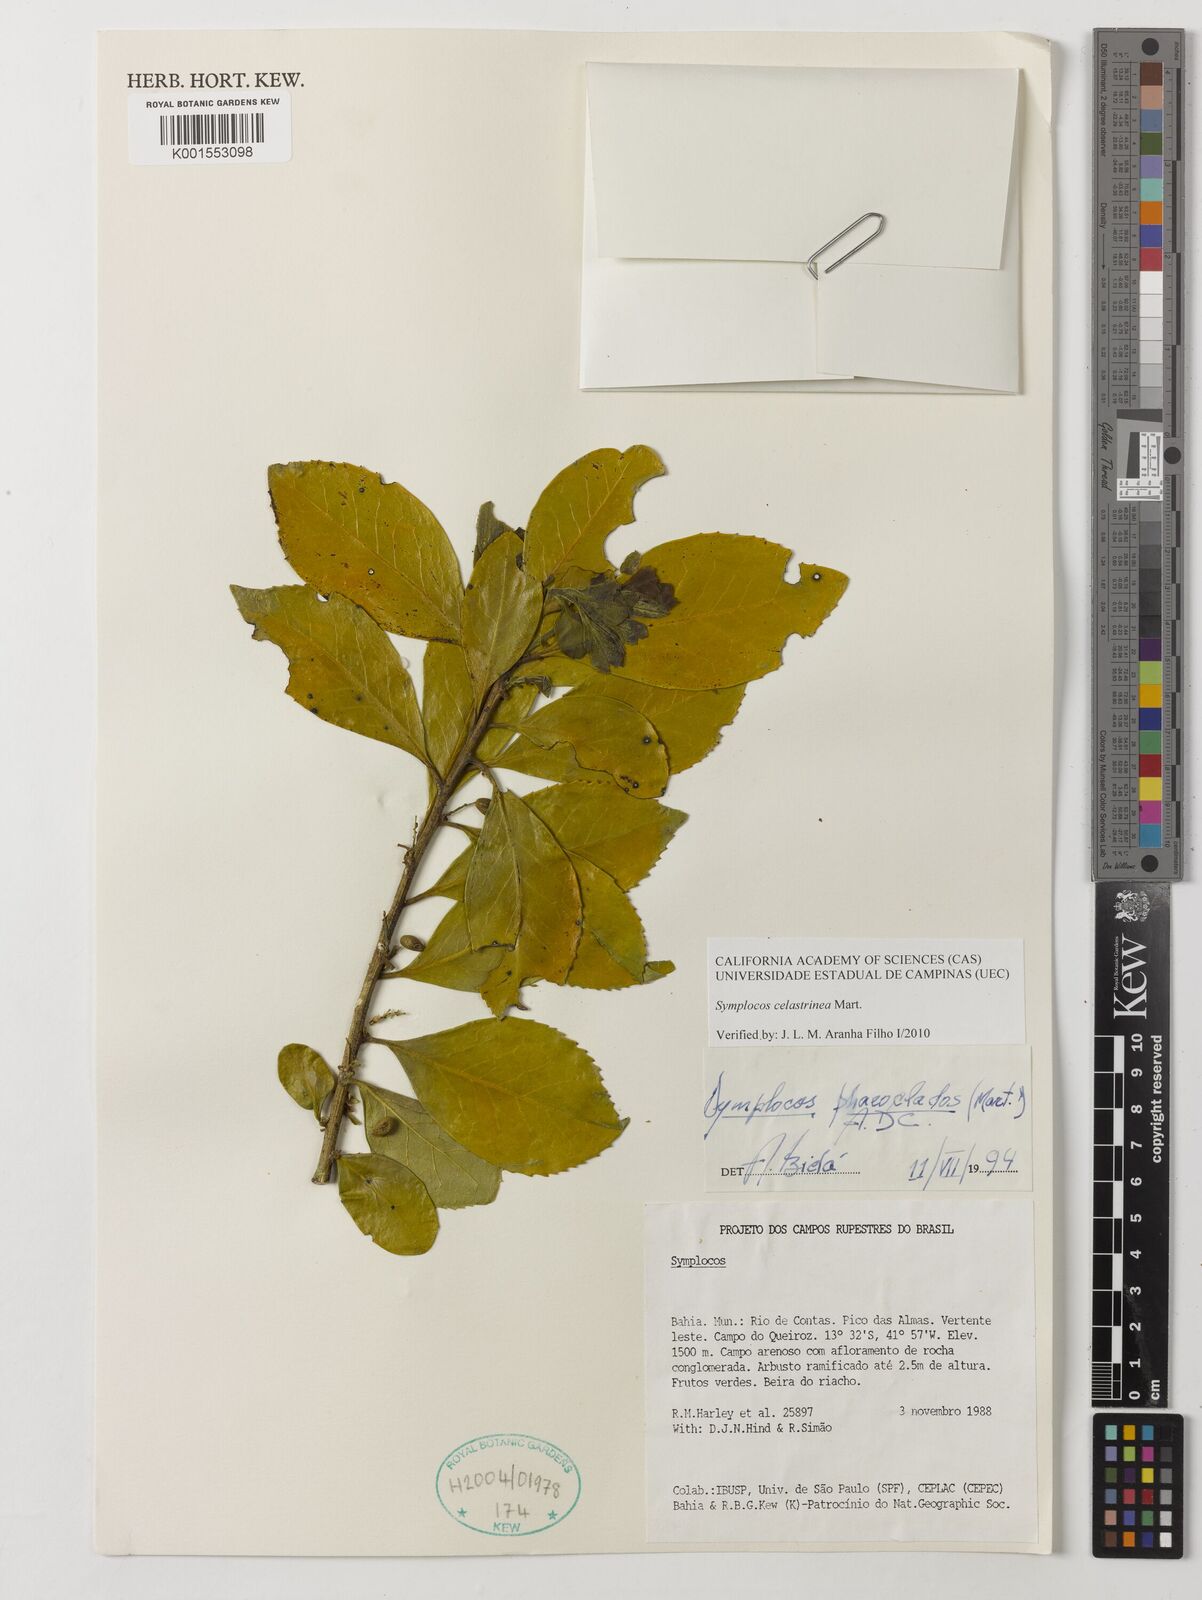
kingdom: Plantae
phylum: Tracheophyta
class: Magnoliopsida
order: Ericales
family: Symplocaceae
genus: Symplocos
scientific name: Symplocos celastrinea
